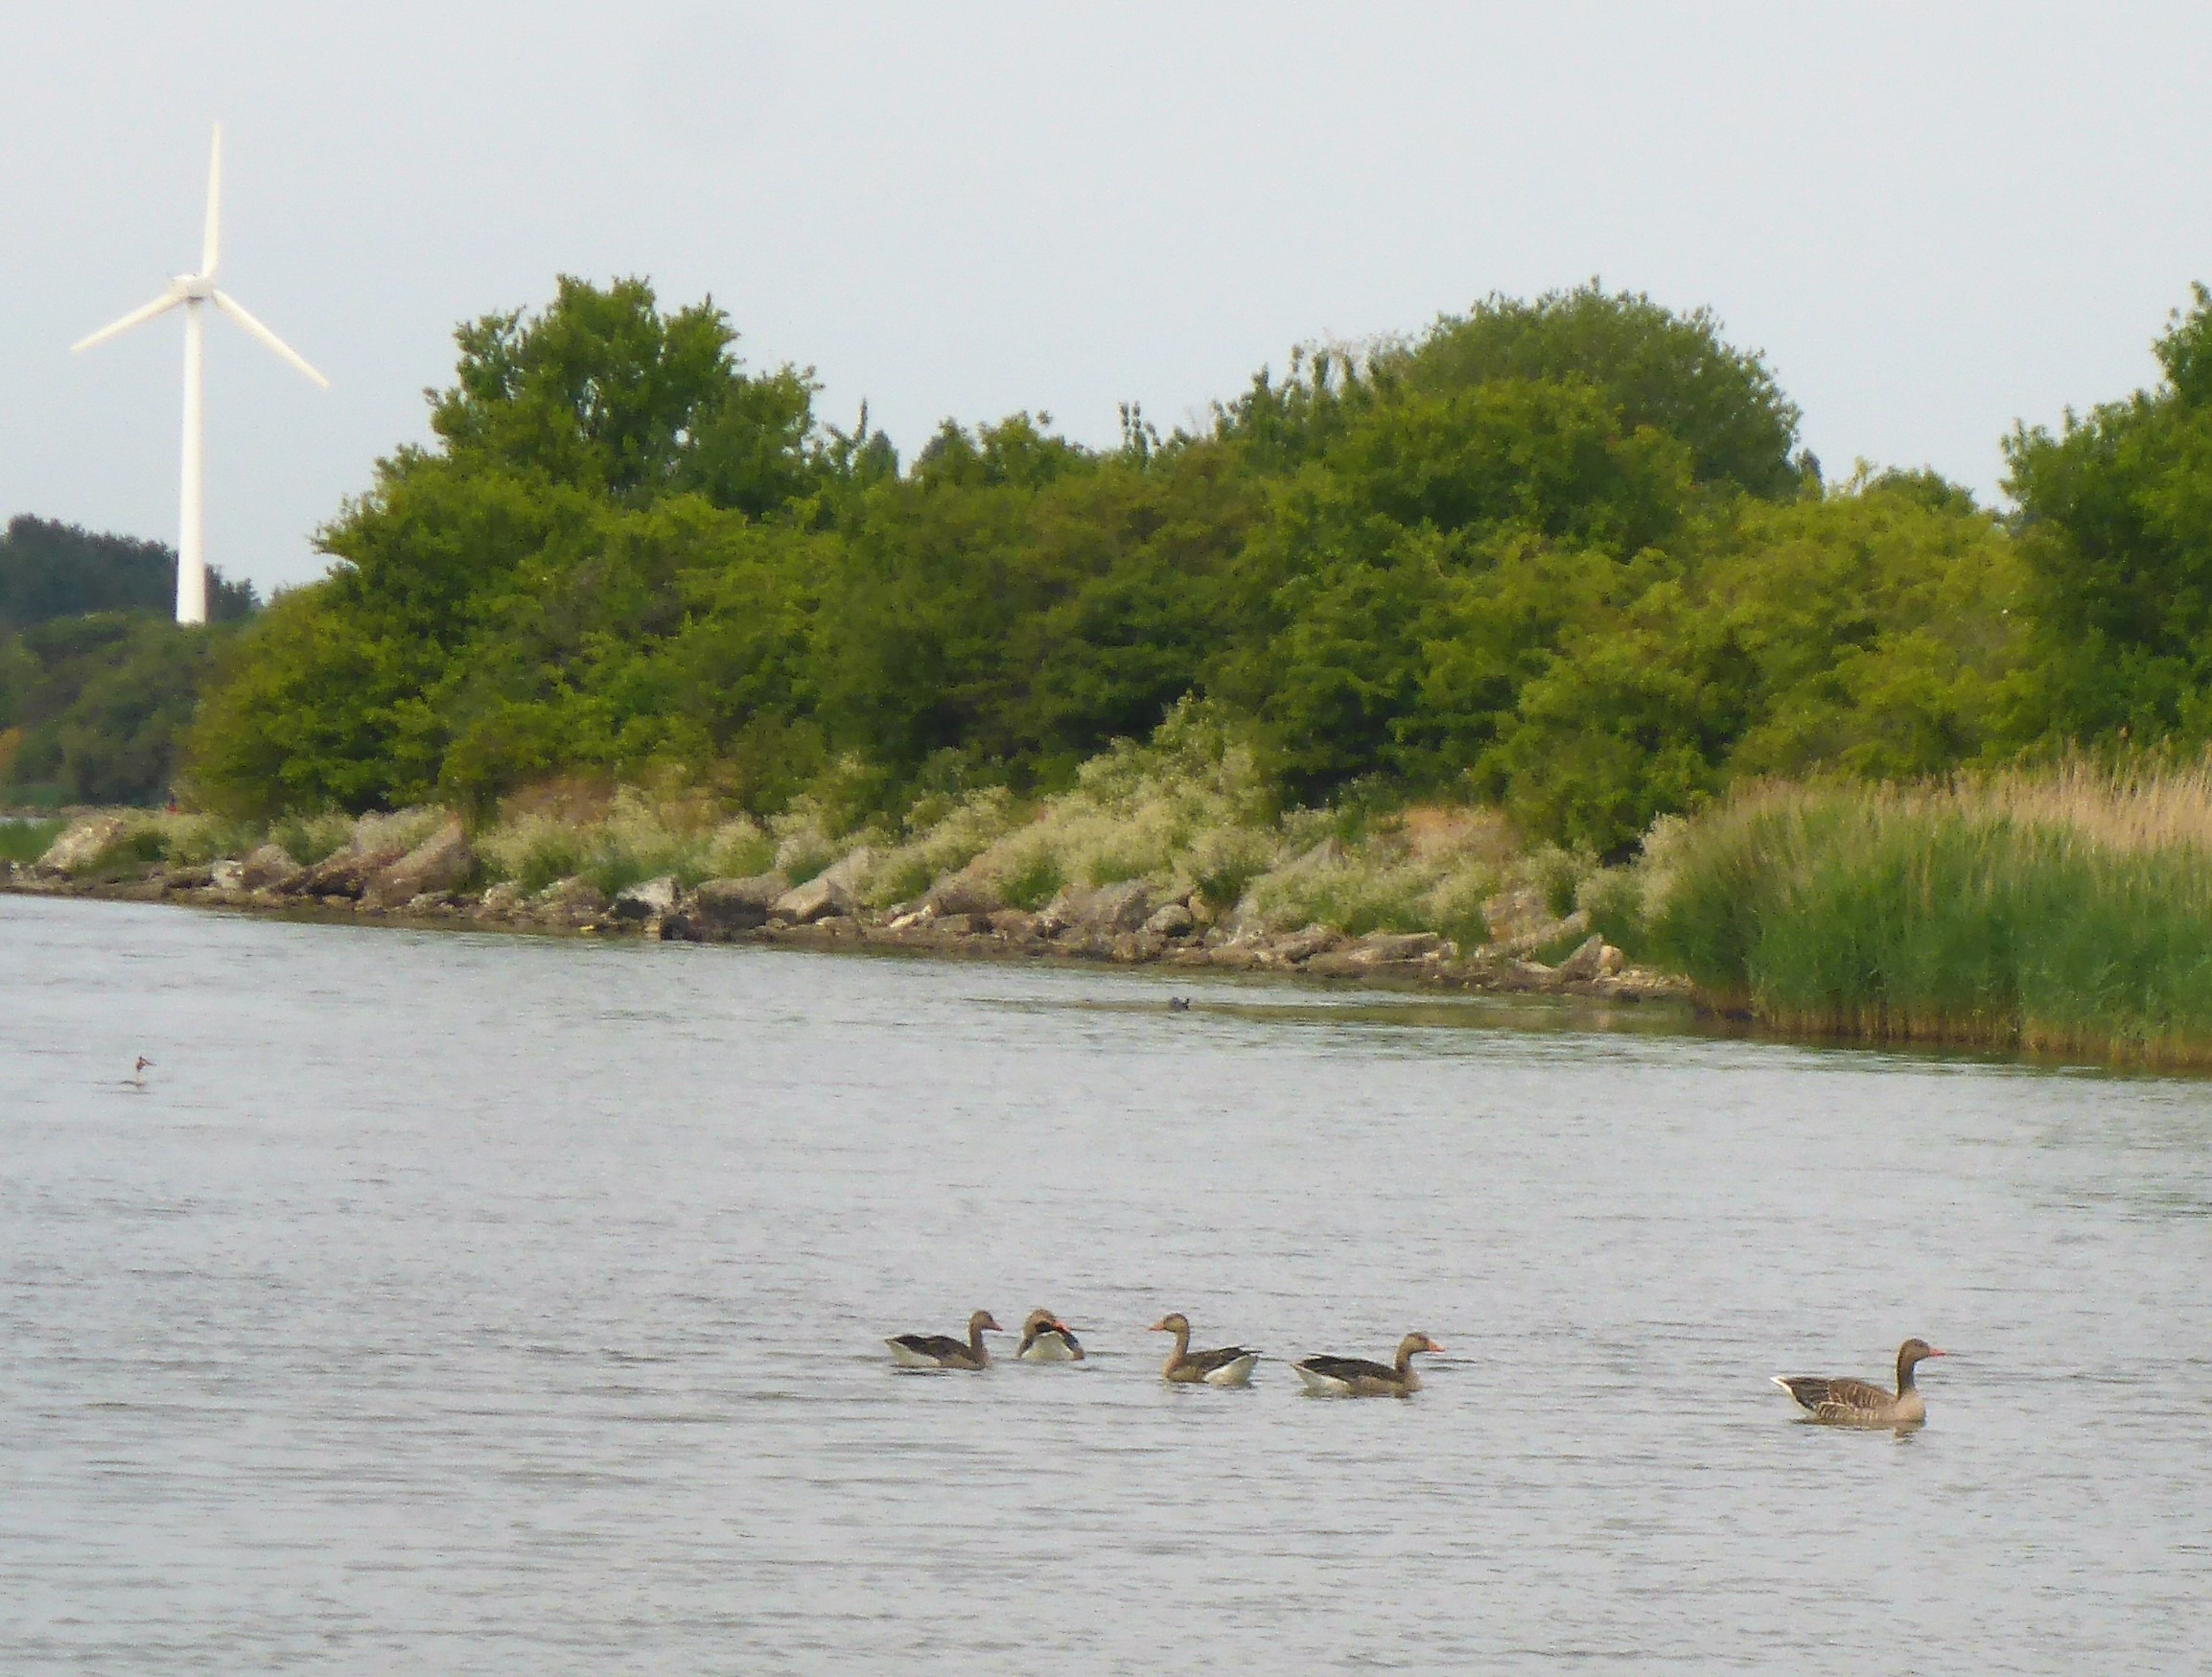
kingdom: Animalia
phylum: Chordata
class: Aves
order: Anseriformes
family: Anatidae
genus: Anser
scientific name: Anser anser
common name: Grågås
